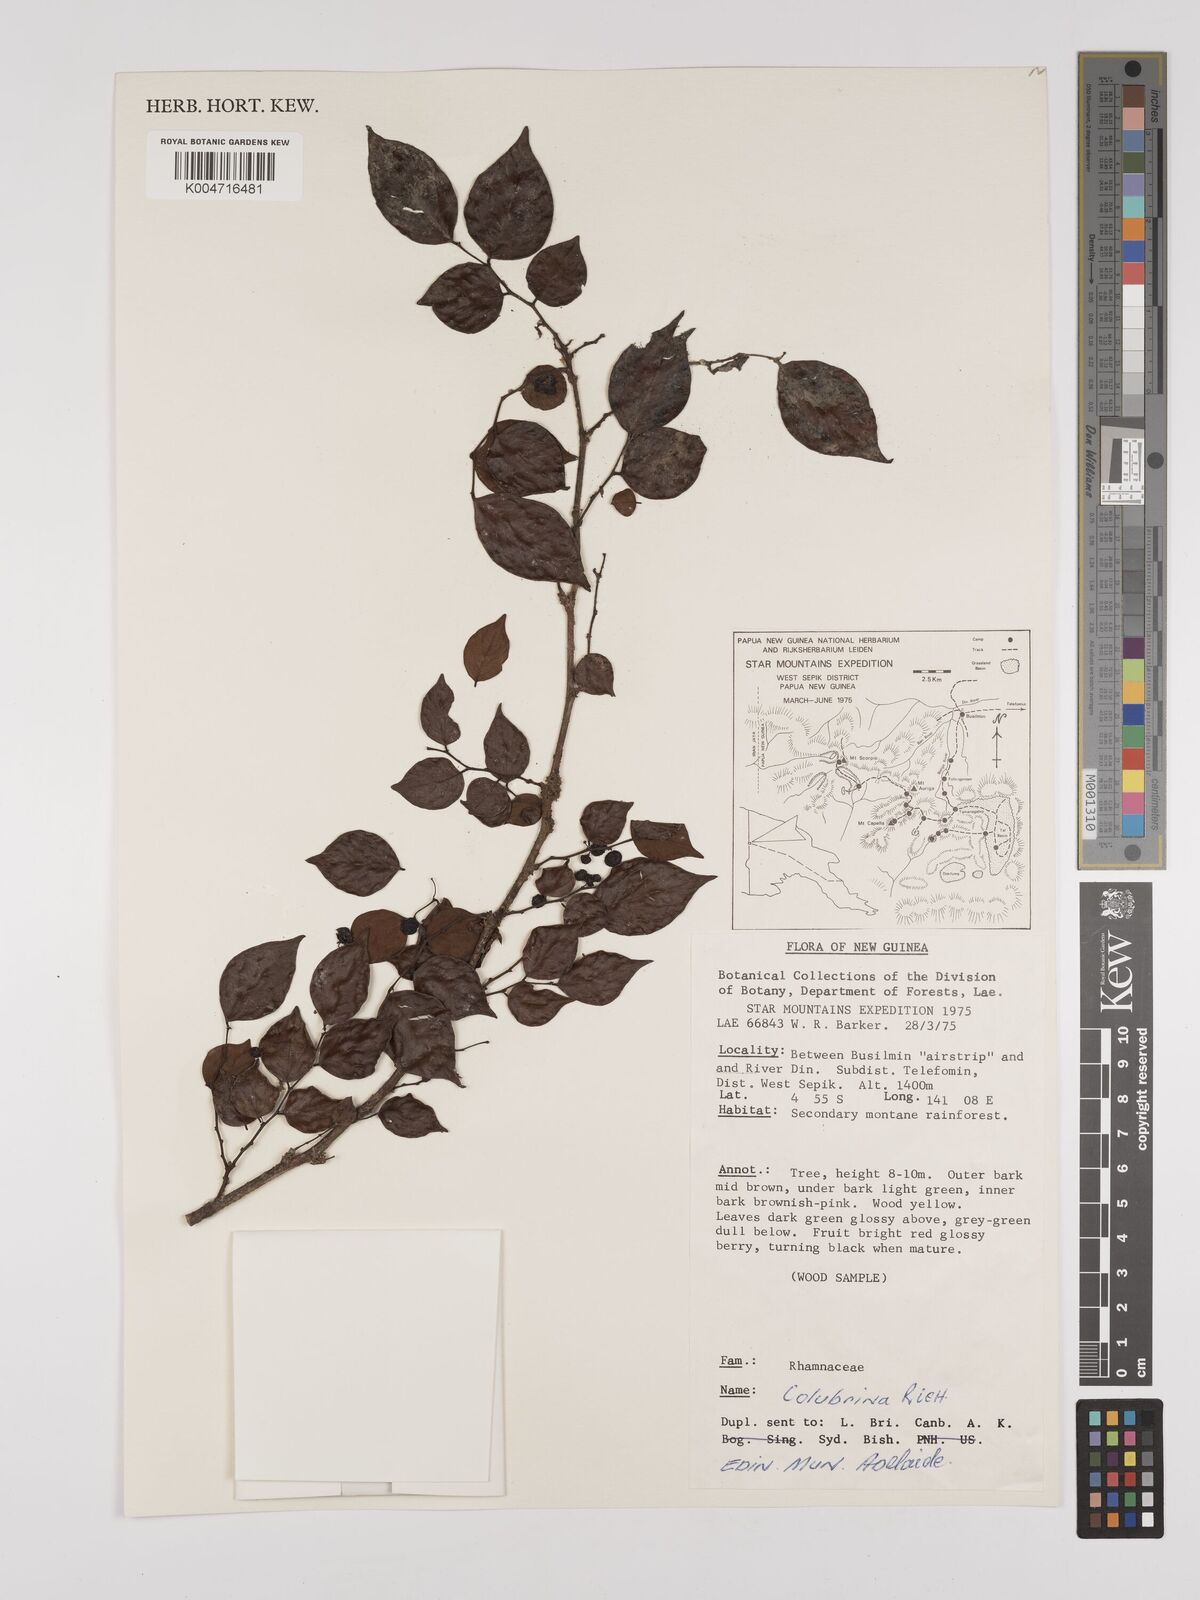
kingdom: Plantae
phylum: Tracheophyta
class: Magnoliopsida
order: Rosales
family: Rhamnaceae
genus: Colubrina
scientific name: Colubrina asiatica
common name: Asian nakedwood
